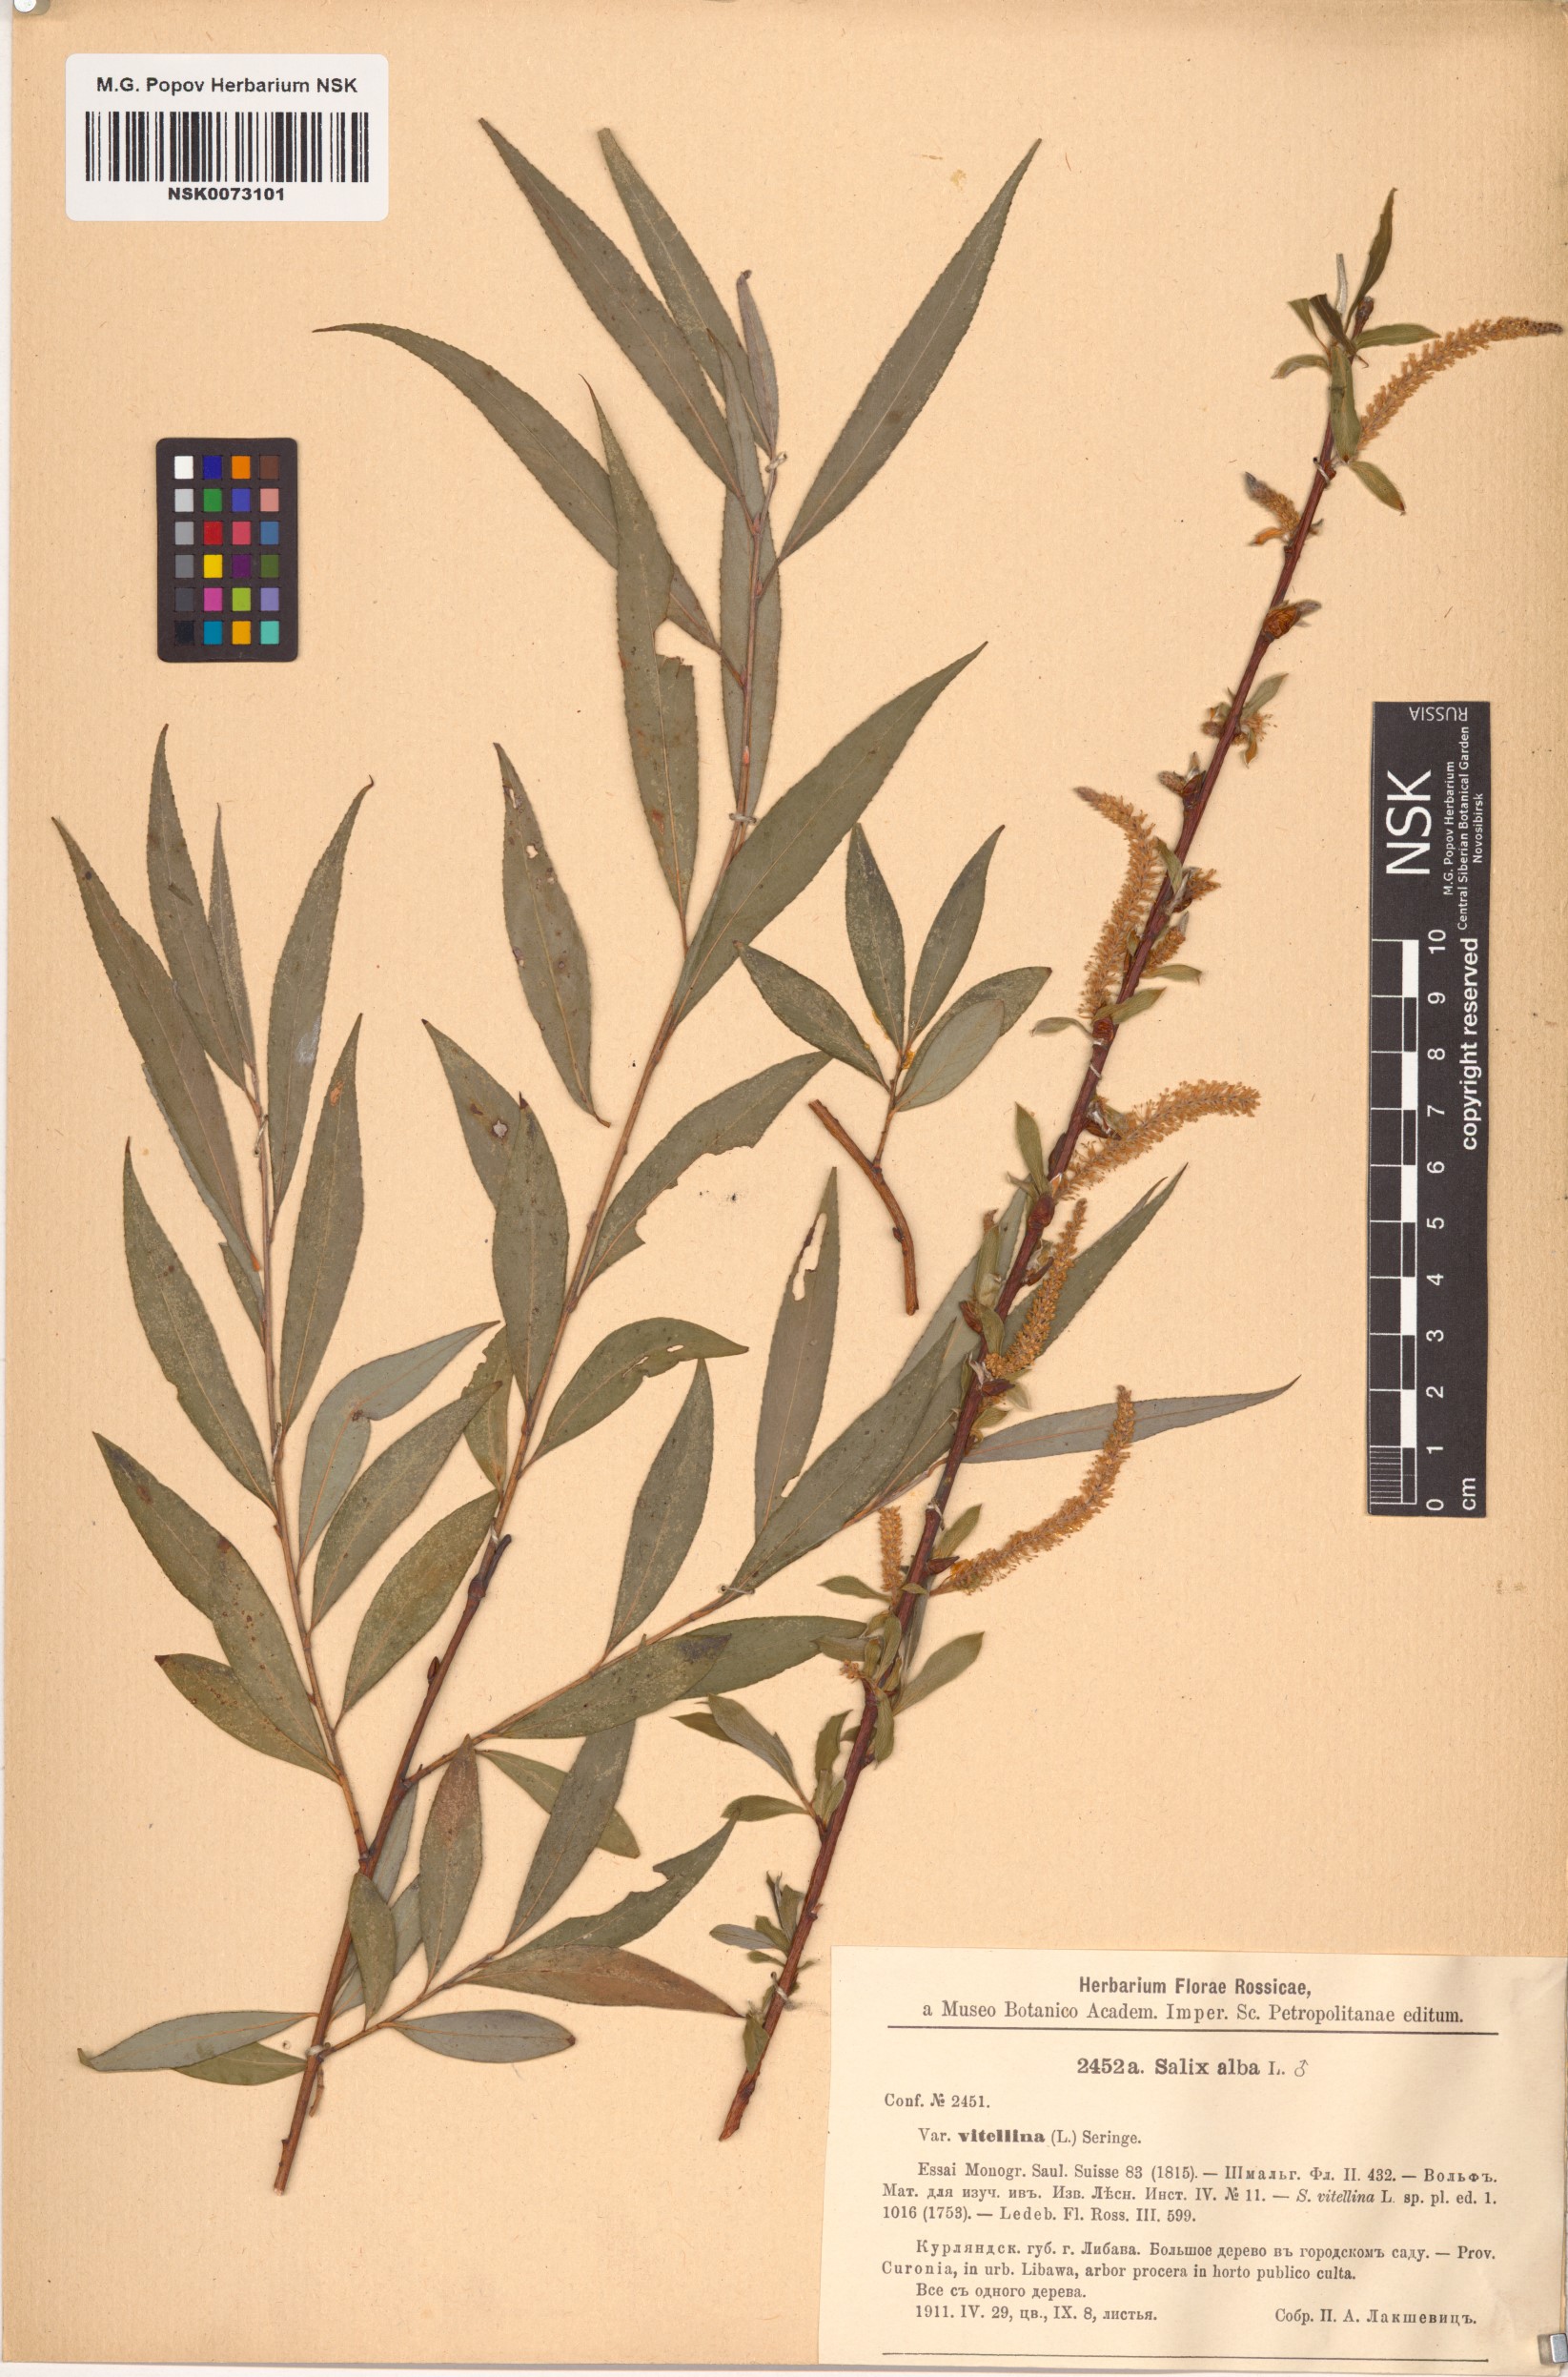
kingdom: Plantae
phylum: Tracheophyta
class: Magnoliopsida
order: Malpighiales
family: Salicaceae
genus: Salix
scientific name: Salix alba
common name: White willow
